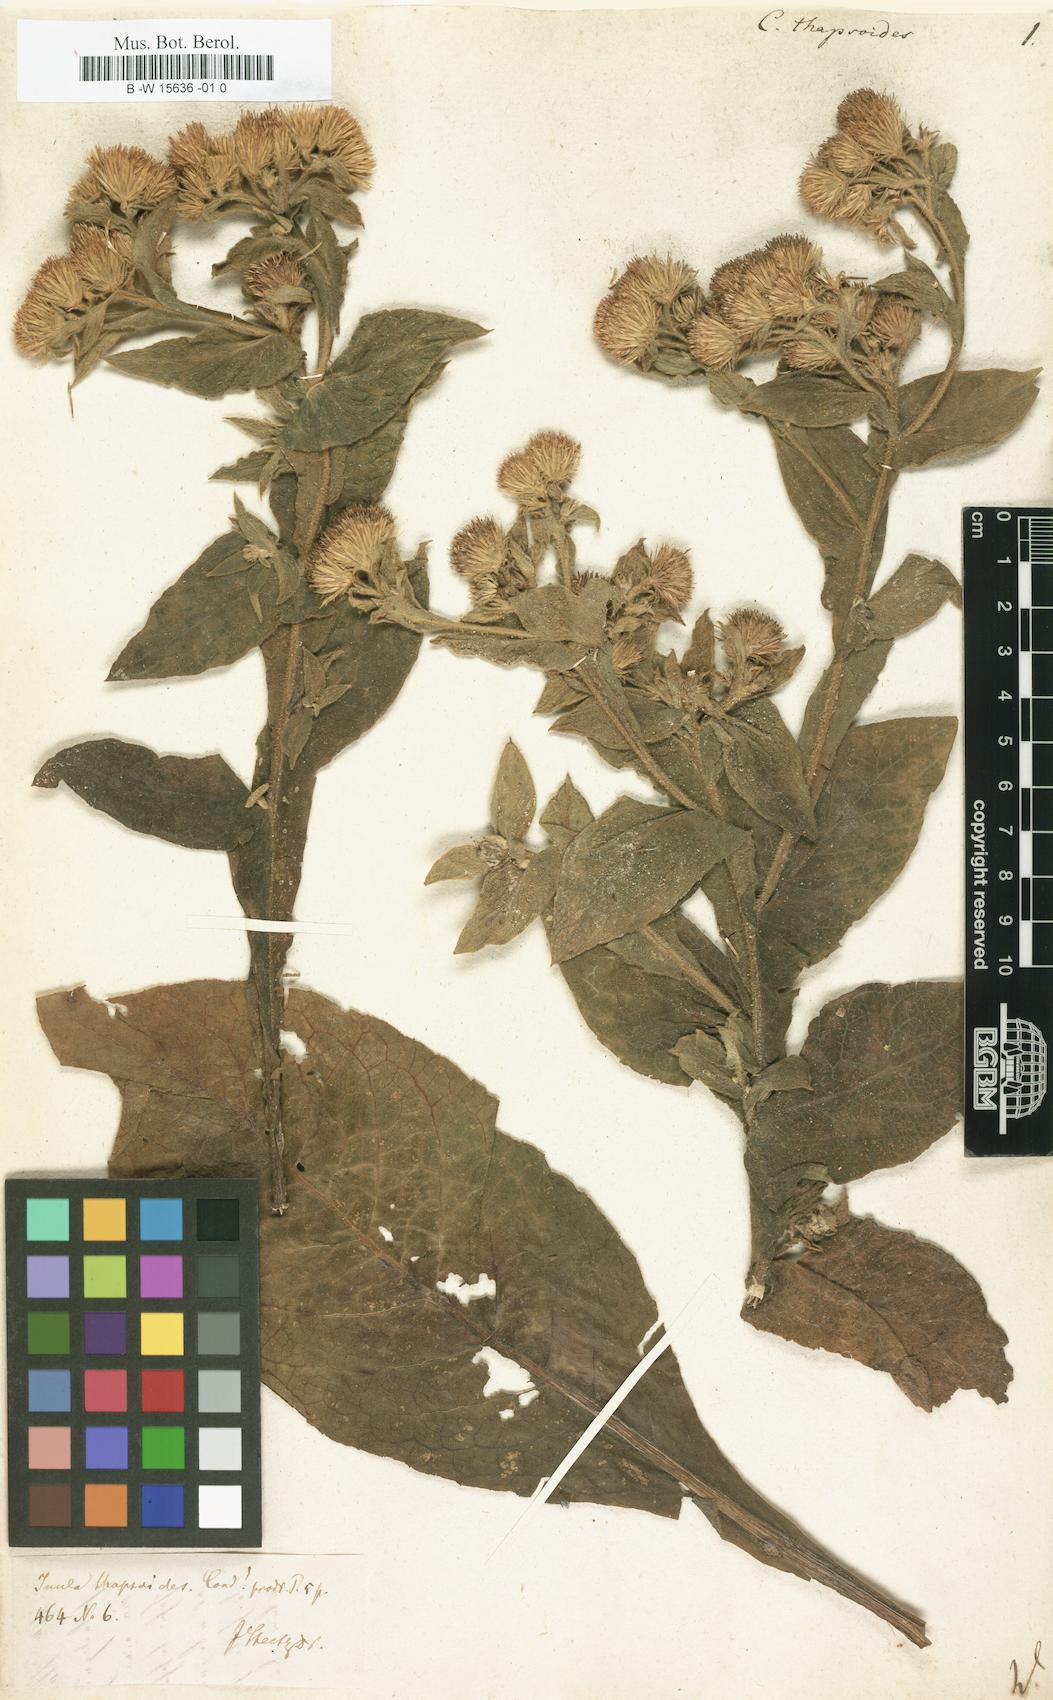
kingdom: Plantae
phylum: Tracheophyta
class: Magnoliopsida
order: Asterales
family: Asteraceae
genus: Inula
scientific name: Inula thapsoides
